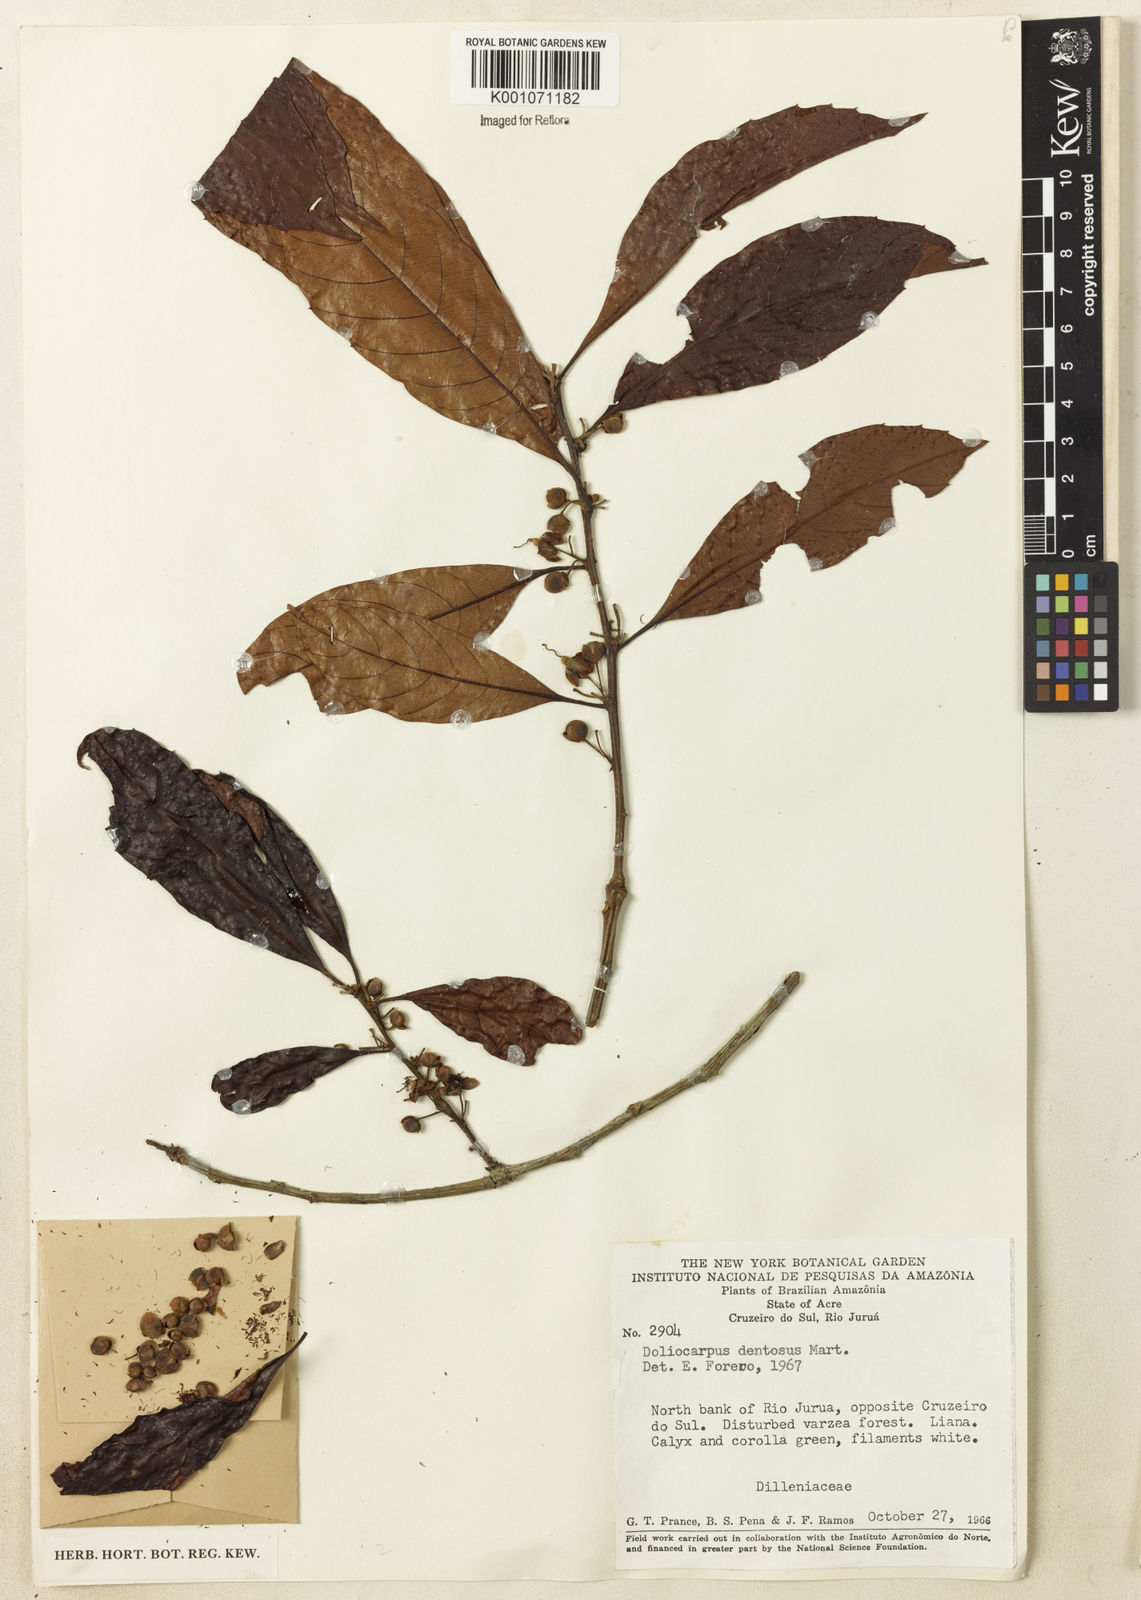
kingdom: Plantae
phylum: Tracheophyta
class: Magnoliopsida
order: Dilleniales
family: Dilleniaceae
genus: Doliocarpus
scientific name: Doliocarpus major
